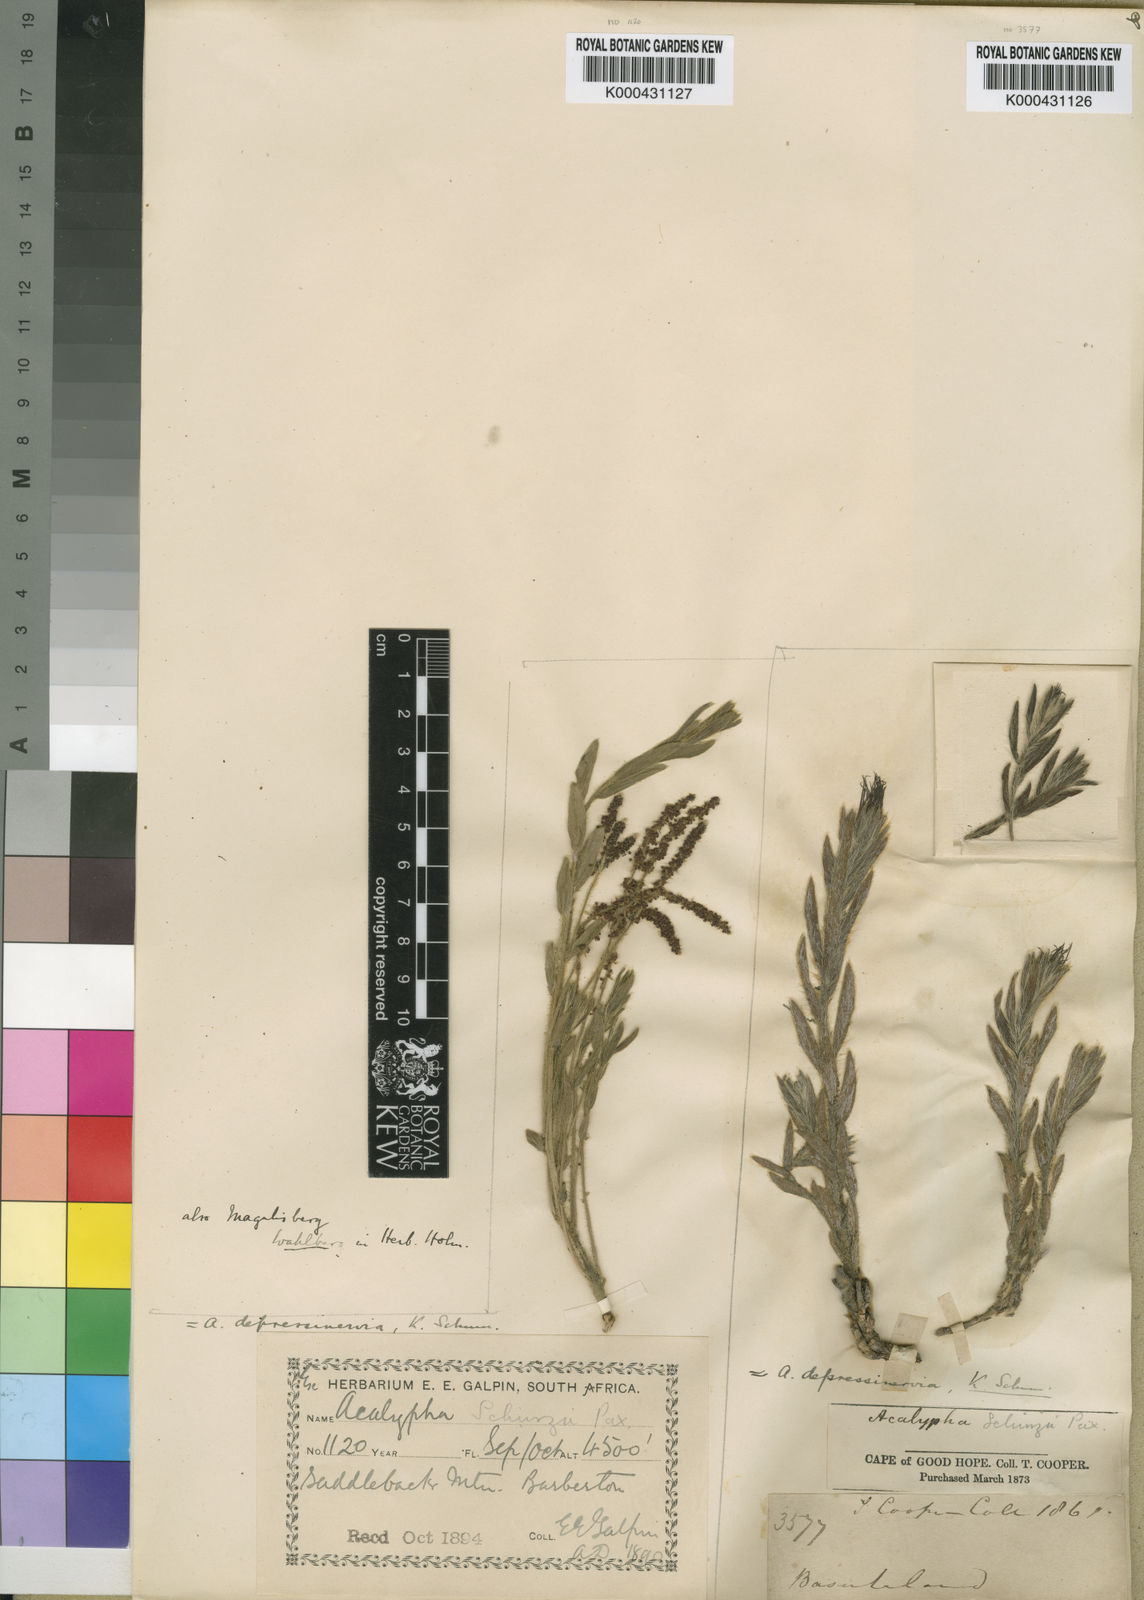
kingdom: Plantae
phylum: Tracheophyta
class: Magnoliopsida
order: Malpighiales
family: Euphorbiaceae
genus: Acalypha
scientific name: Acalypha depressinervia
